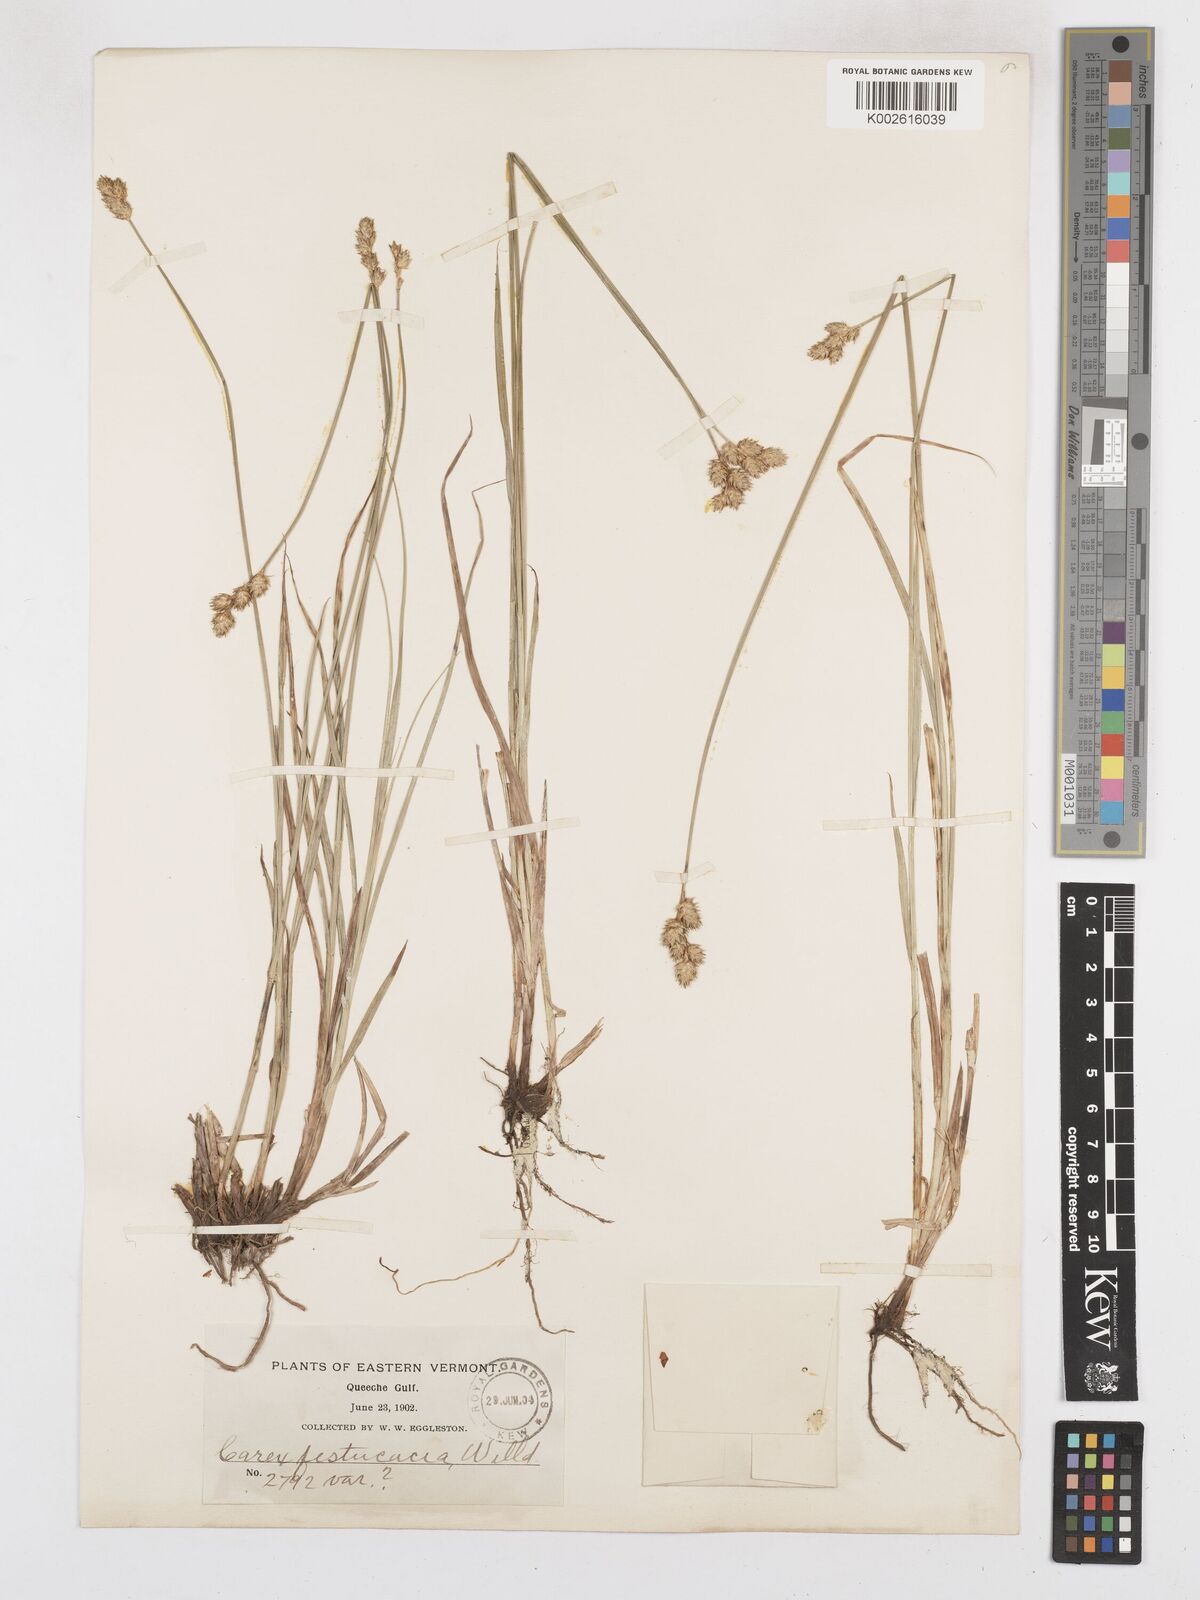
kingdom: Plantae
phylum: Tracheophyta
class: Liliopsida
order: Poales
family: Cyperaceae
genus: Carex
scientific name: Carex festucacea
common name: Fescue oval sedge
